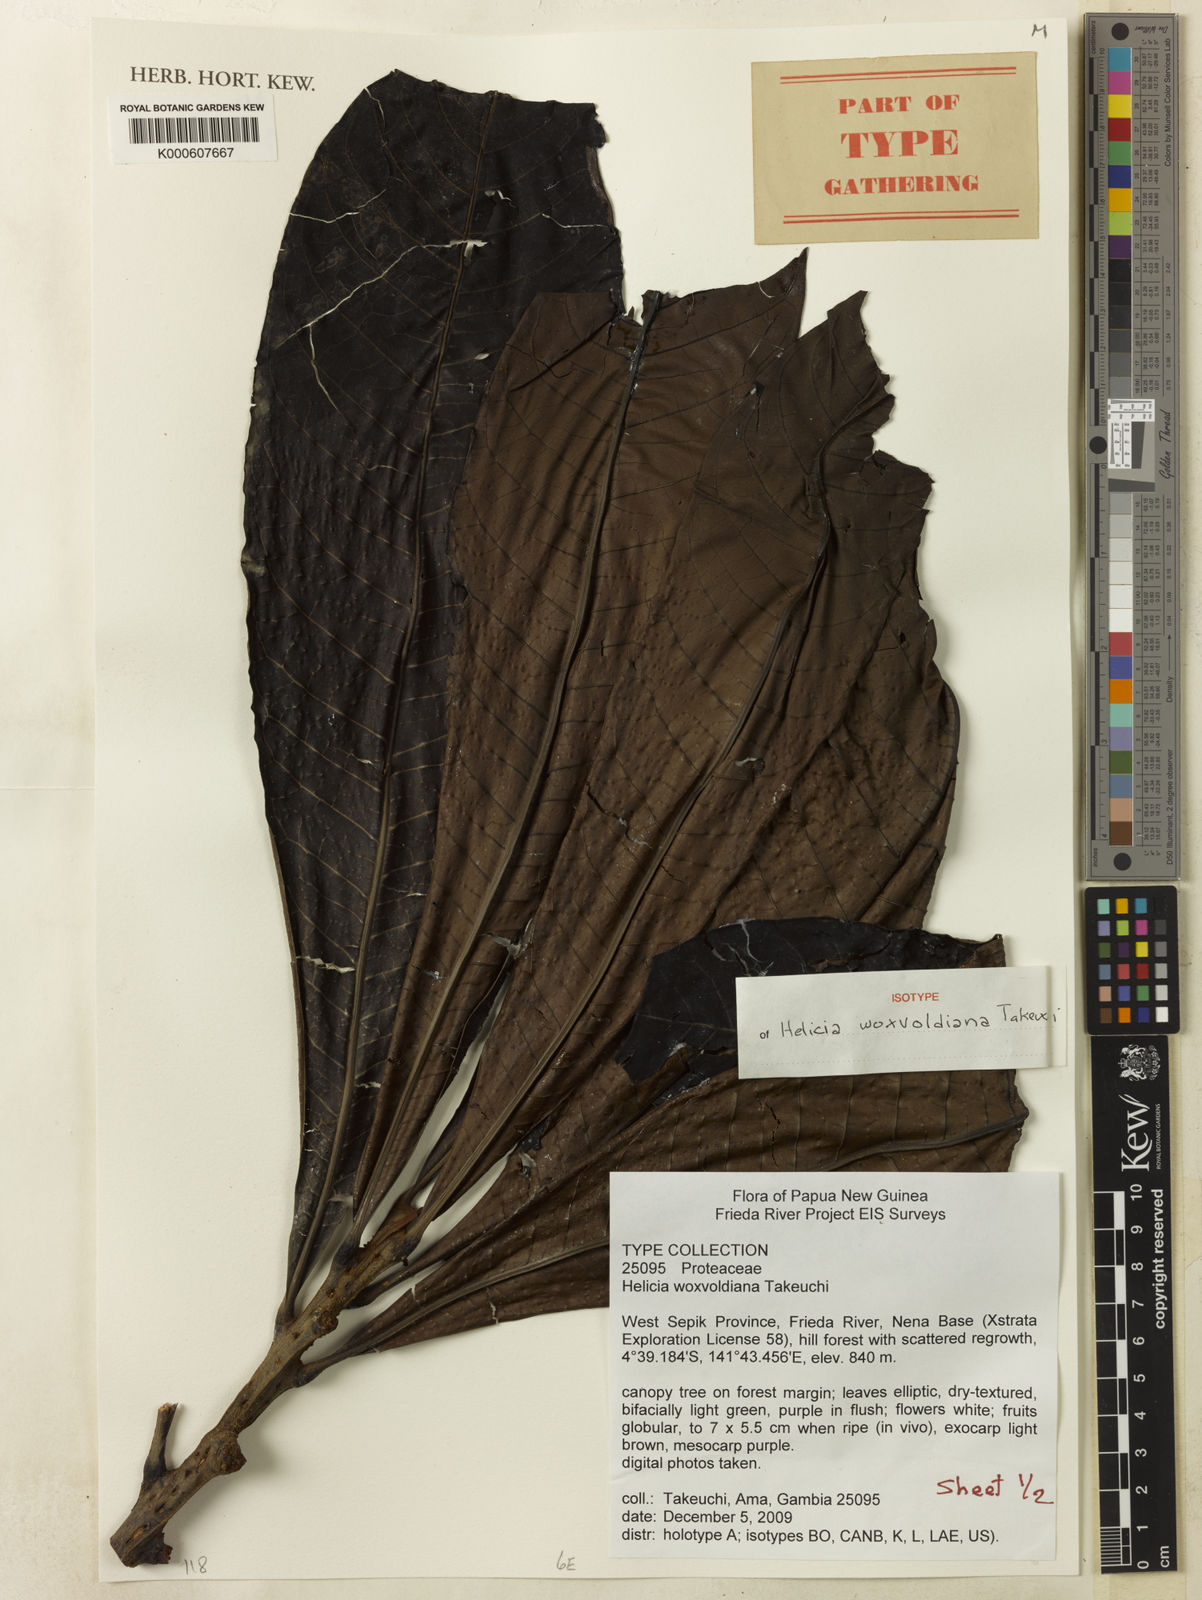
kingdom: Plantae
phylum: Tracheophyta
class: Magnoliopsida
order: Proteales
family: Proteaceae
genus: Helicia
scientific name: Helicia woxvoldiana
